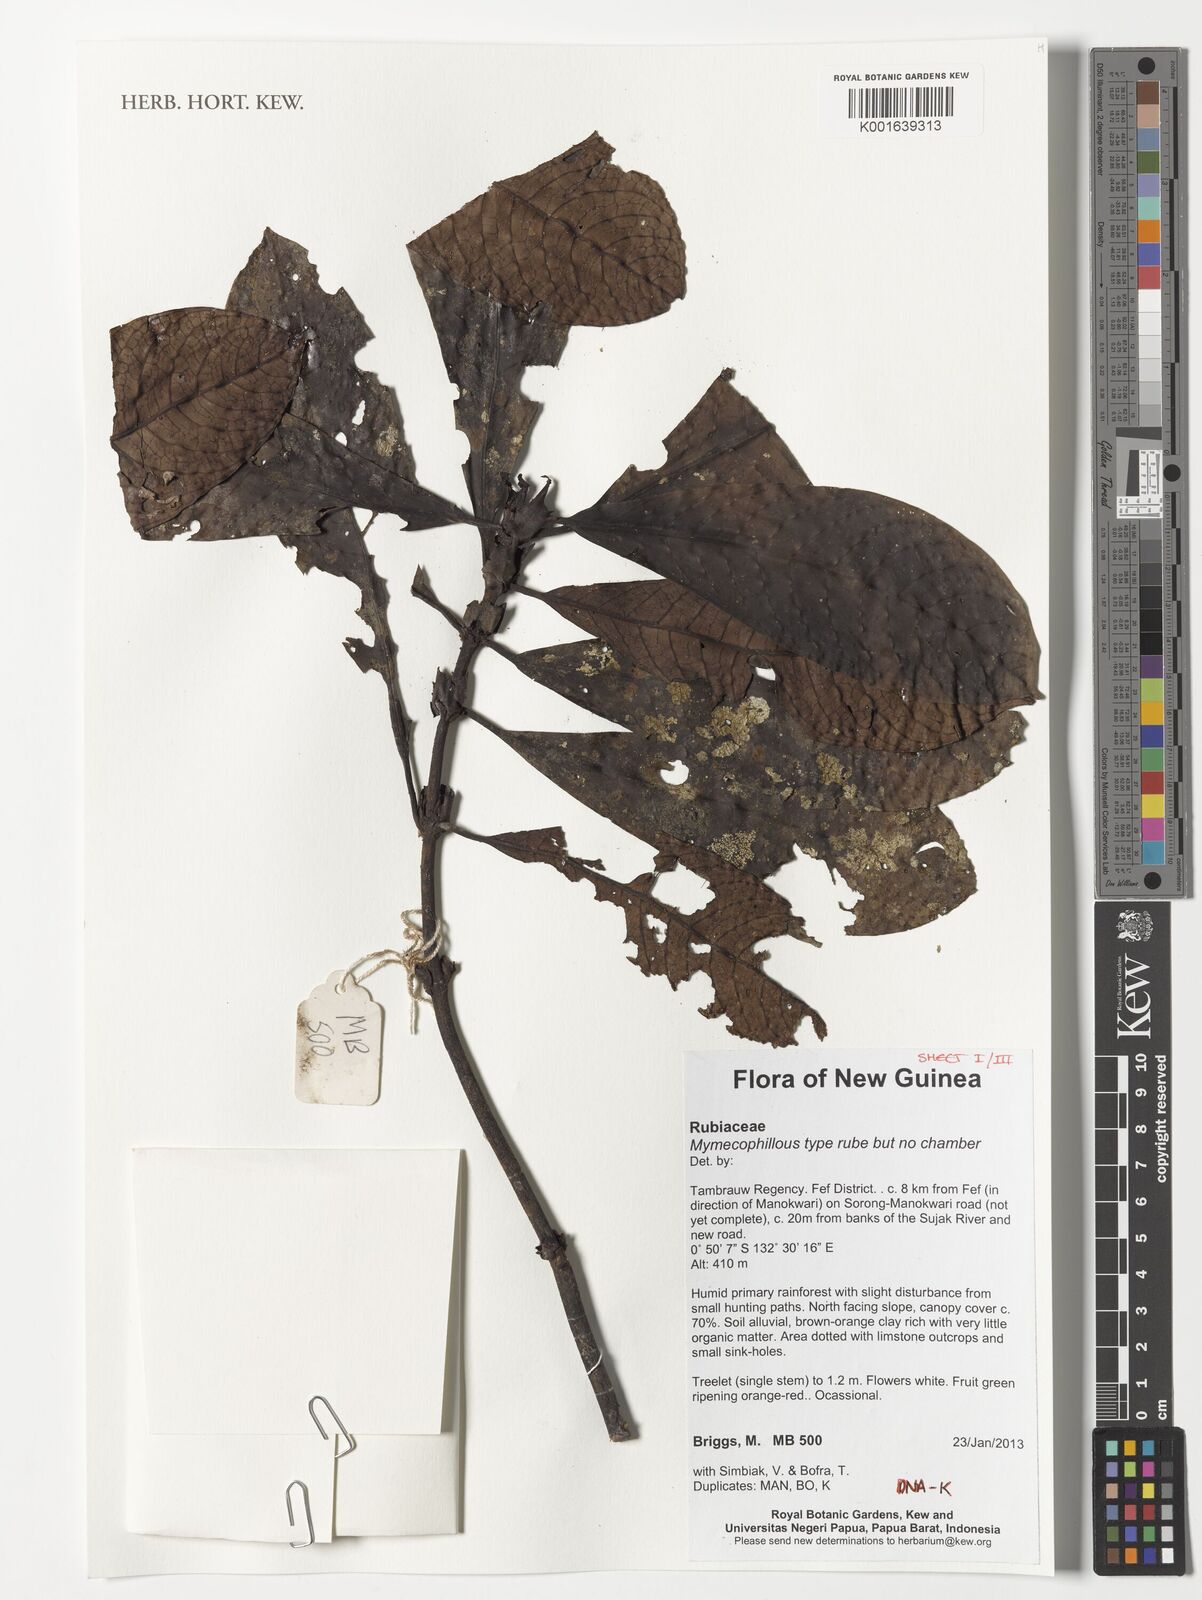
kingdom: Plantae
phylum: Tracheophyta
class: Magnoliopsida
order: Gentianales
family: Rubiaceae
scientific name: Rubiaceae
